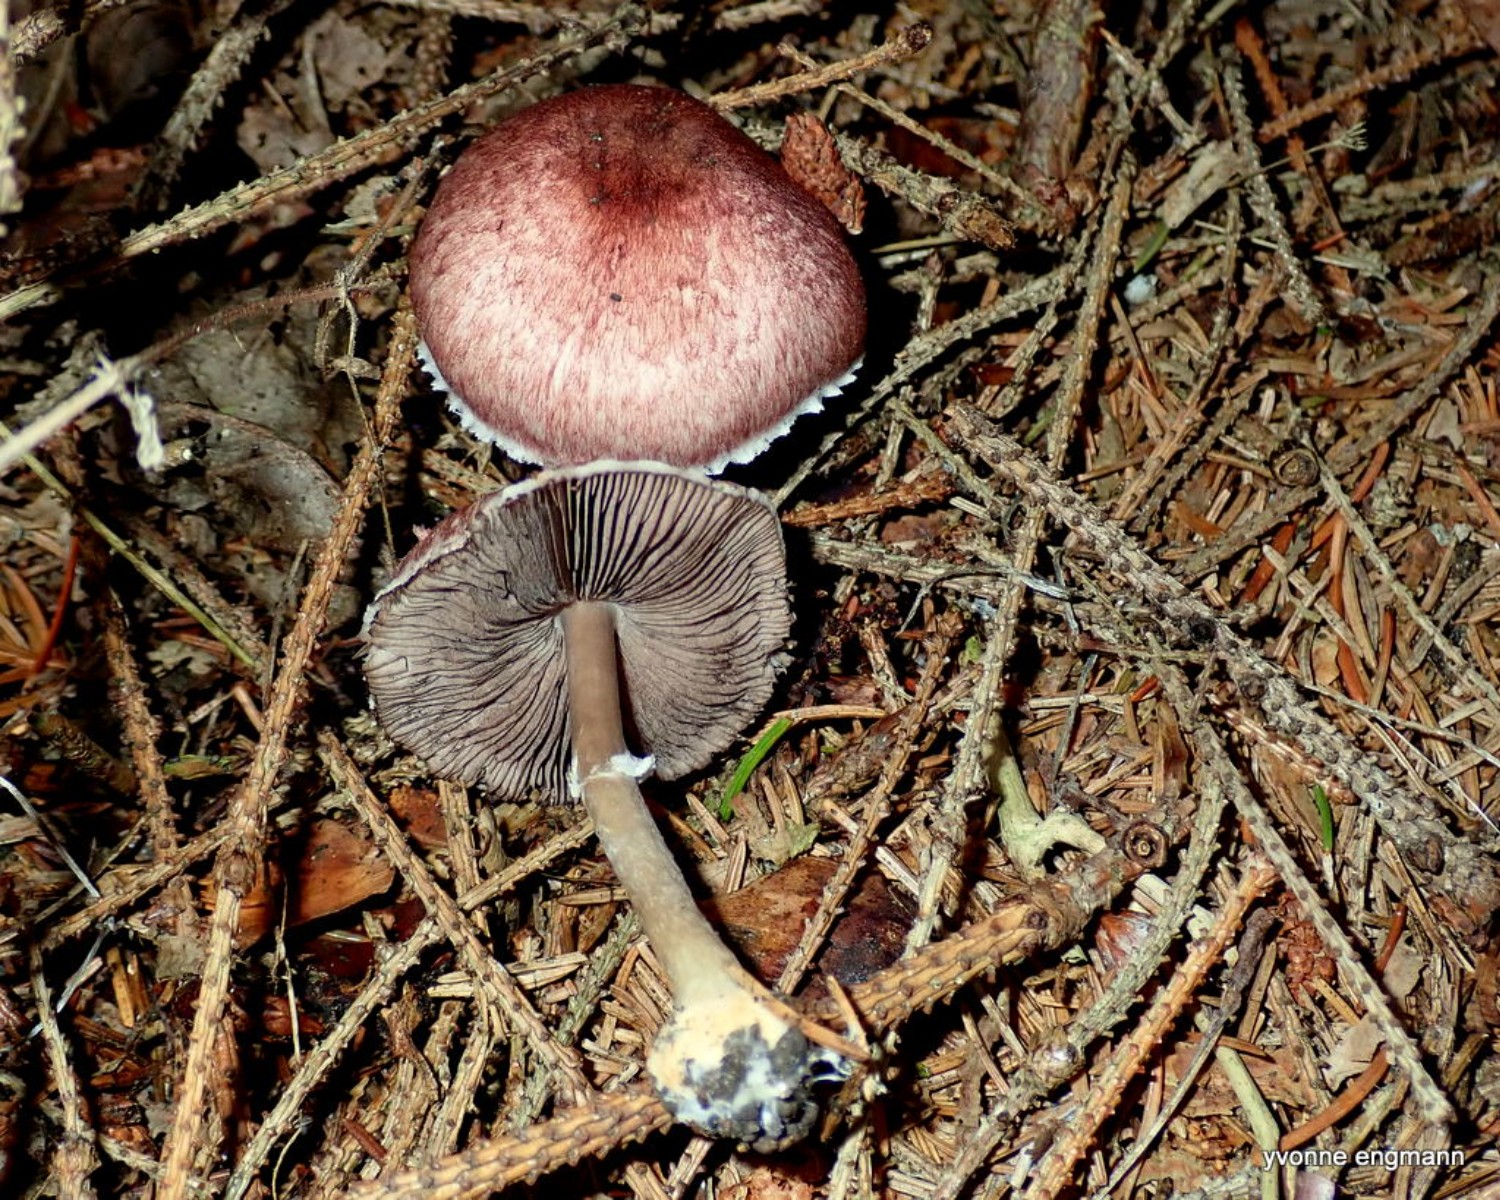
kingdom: Fungi
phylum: Basidiomycota
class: Agaricomycetes
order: Agaricales
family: Agaricaceae
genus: Agaricus
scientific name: Agaricus brunneolus
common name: purpur-champignon
